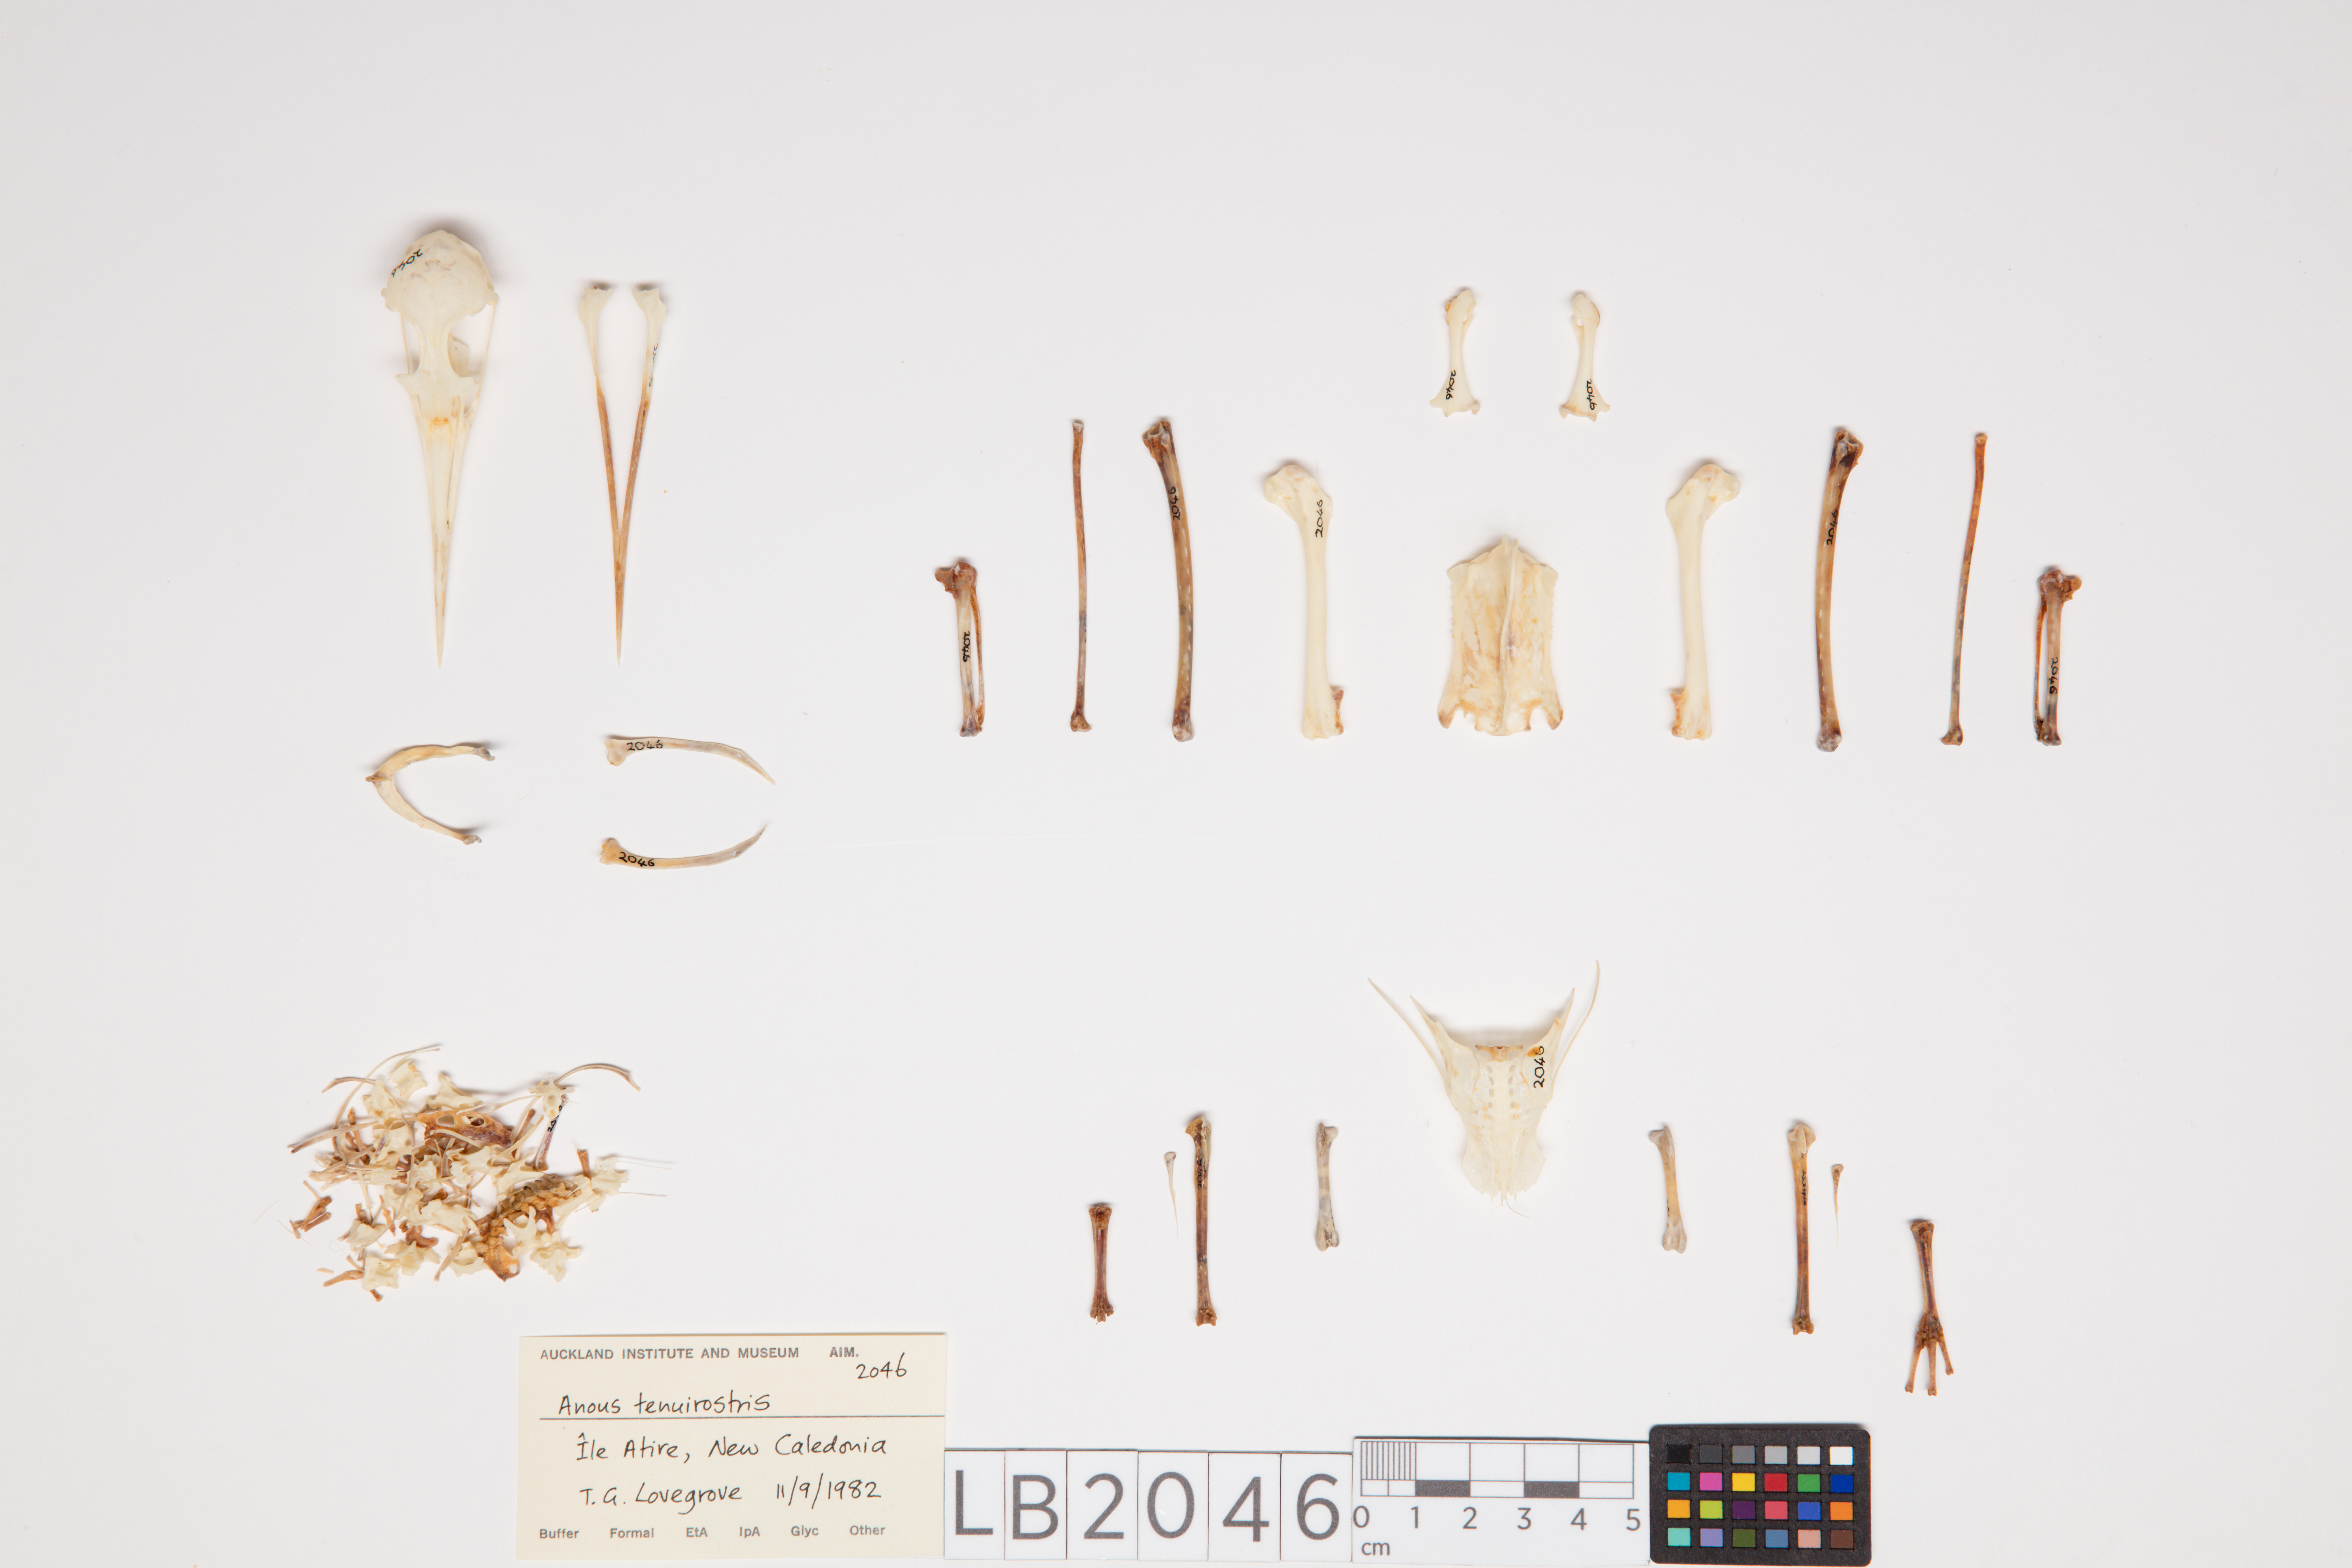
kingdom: Animalia
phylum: Chordata
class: Aves
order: Charadriiformes
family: Laridae
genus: Anous
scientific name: Anous minutus
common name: Black noddy
